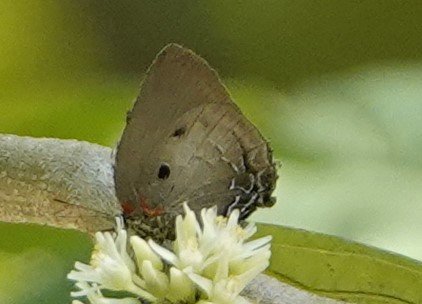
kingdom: Animalia
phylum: Arthropoda
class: Insecta
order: Lepidoptera
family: Lycaenidae
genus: Olynthus
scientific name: Olynthus narbal
